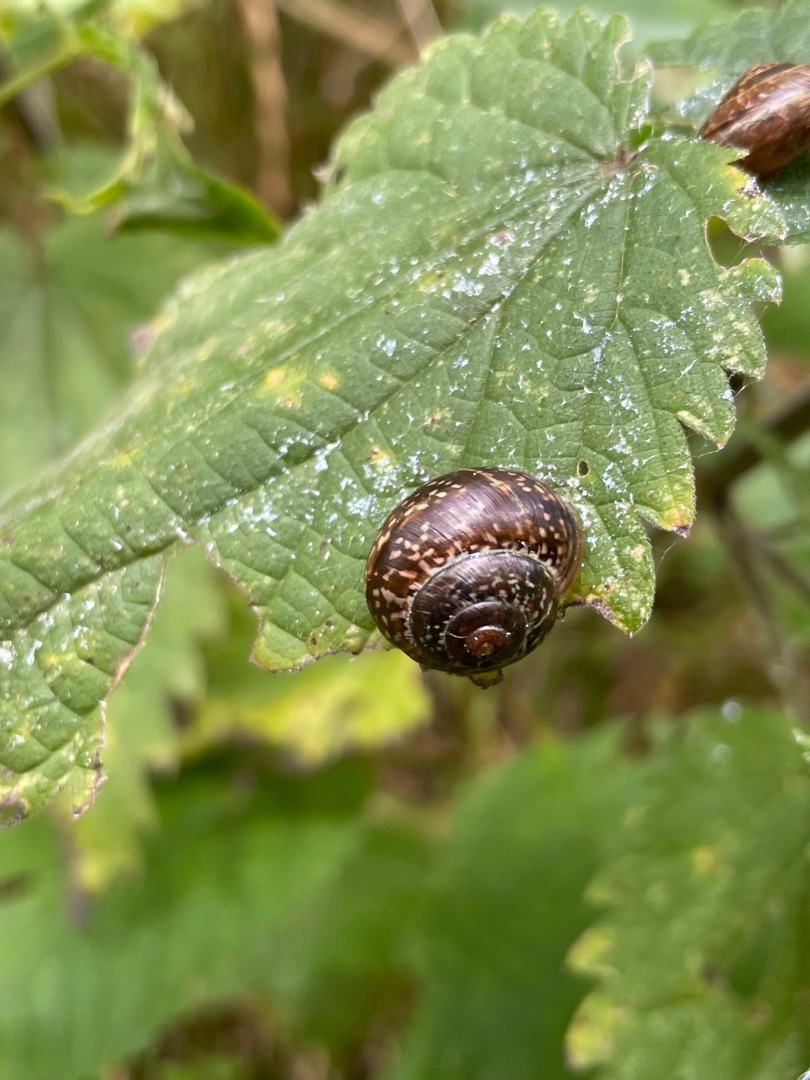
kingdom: Animalia
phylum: Mollusca
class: Gastropoda
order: Stylommatophora
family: Helicidae
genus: Arianta
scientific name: Arianta arbustorum
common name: Kratsnegl
